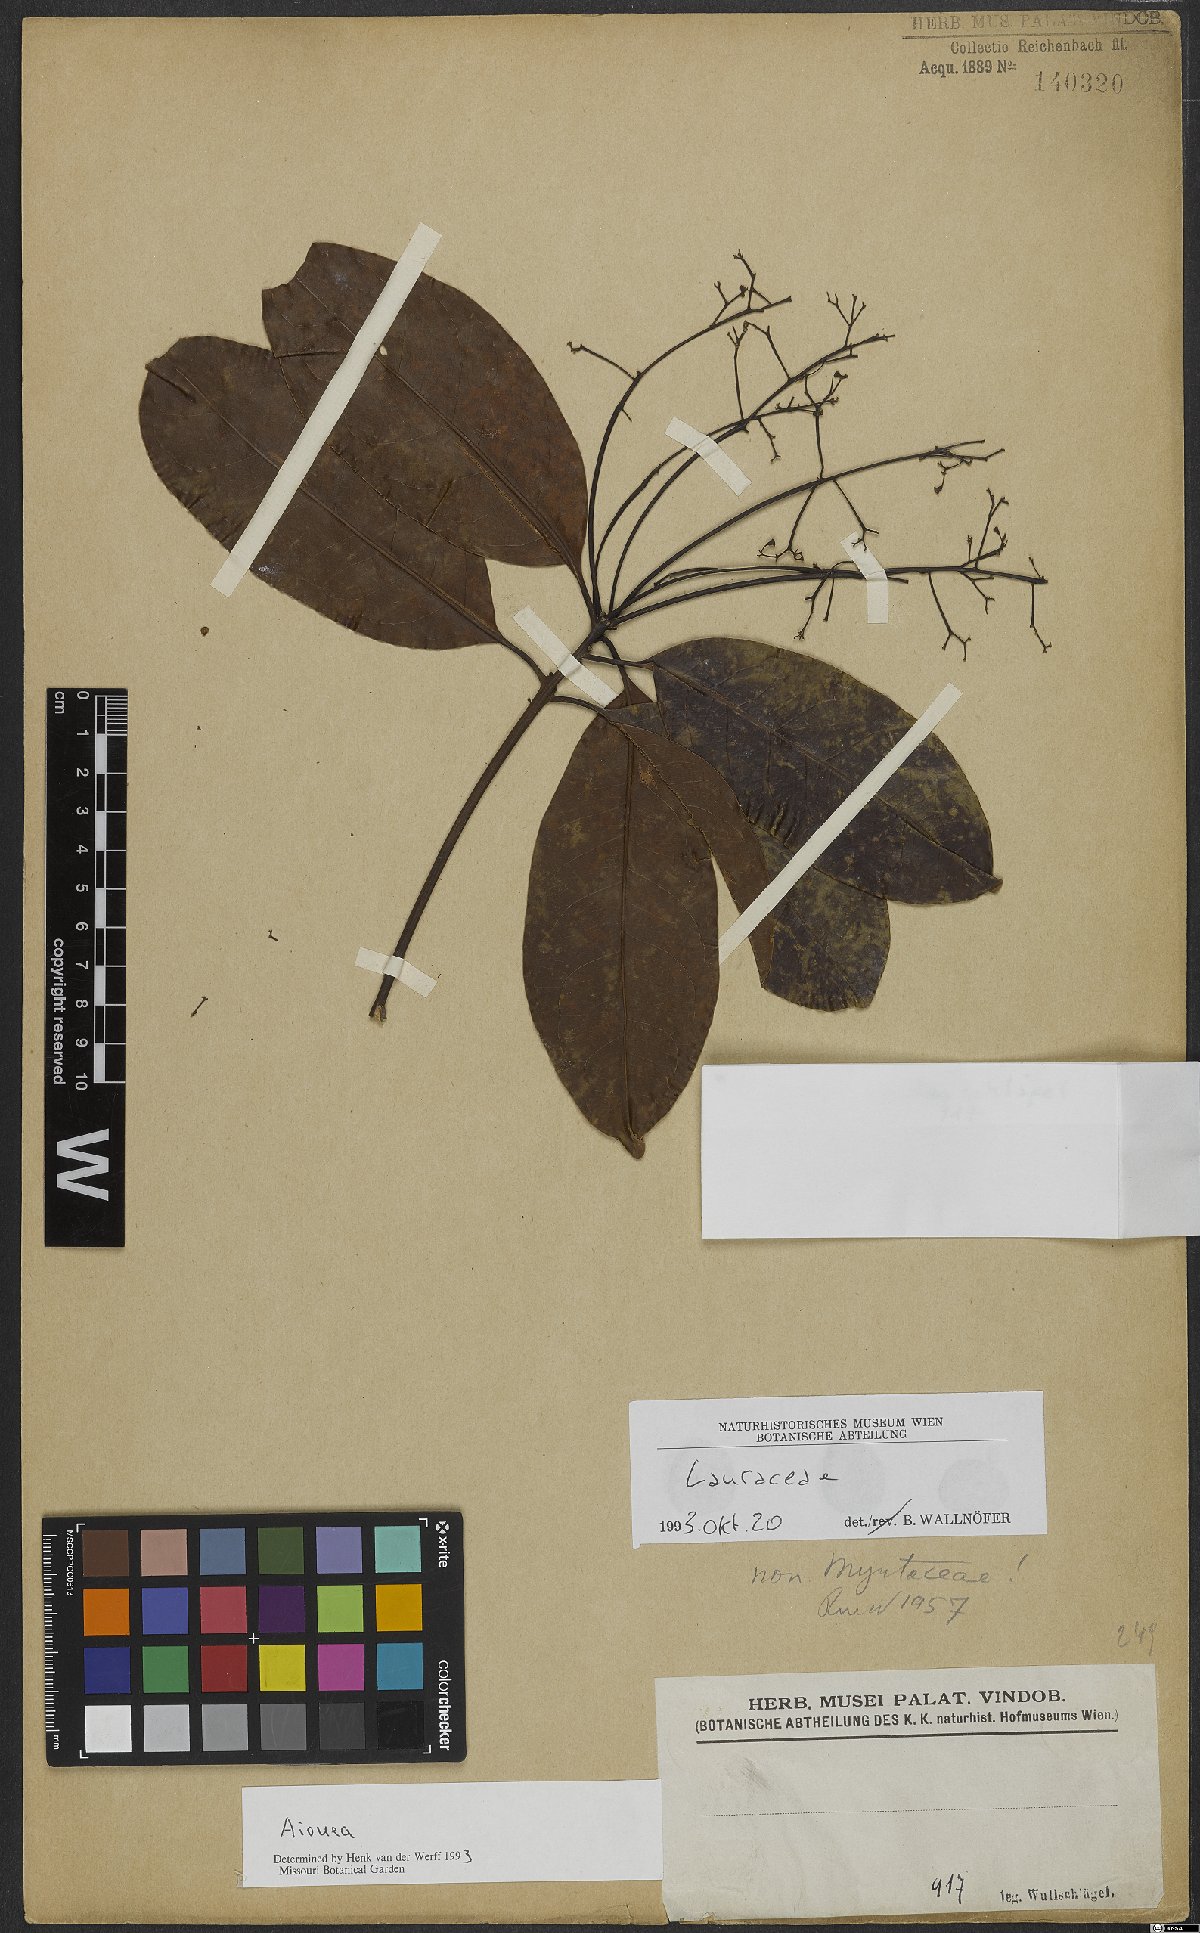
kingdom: Plantae
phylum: Tracheophyta
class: Magnoliopsida
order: Laurales
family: Lauraceae
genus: Aiouea
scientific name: Aiouea
